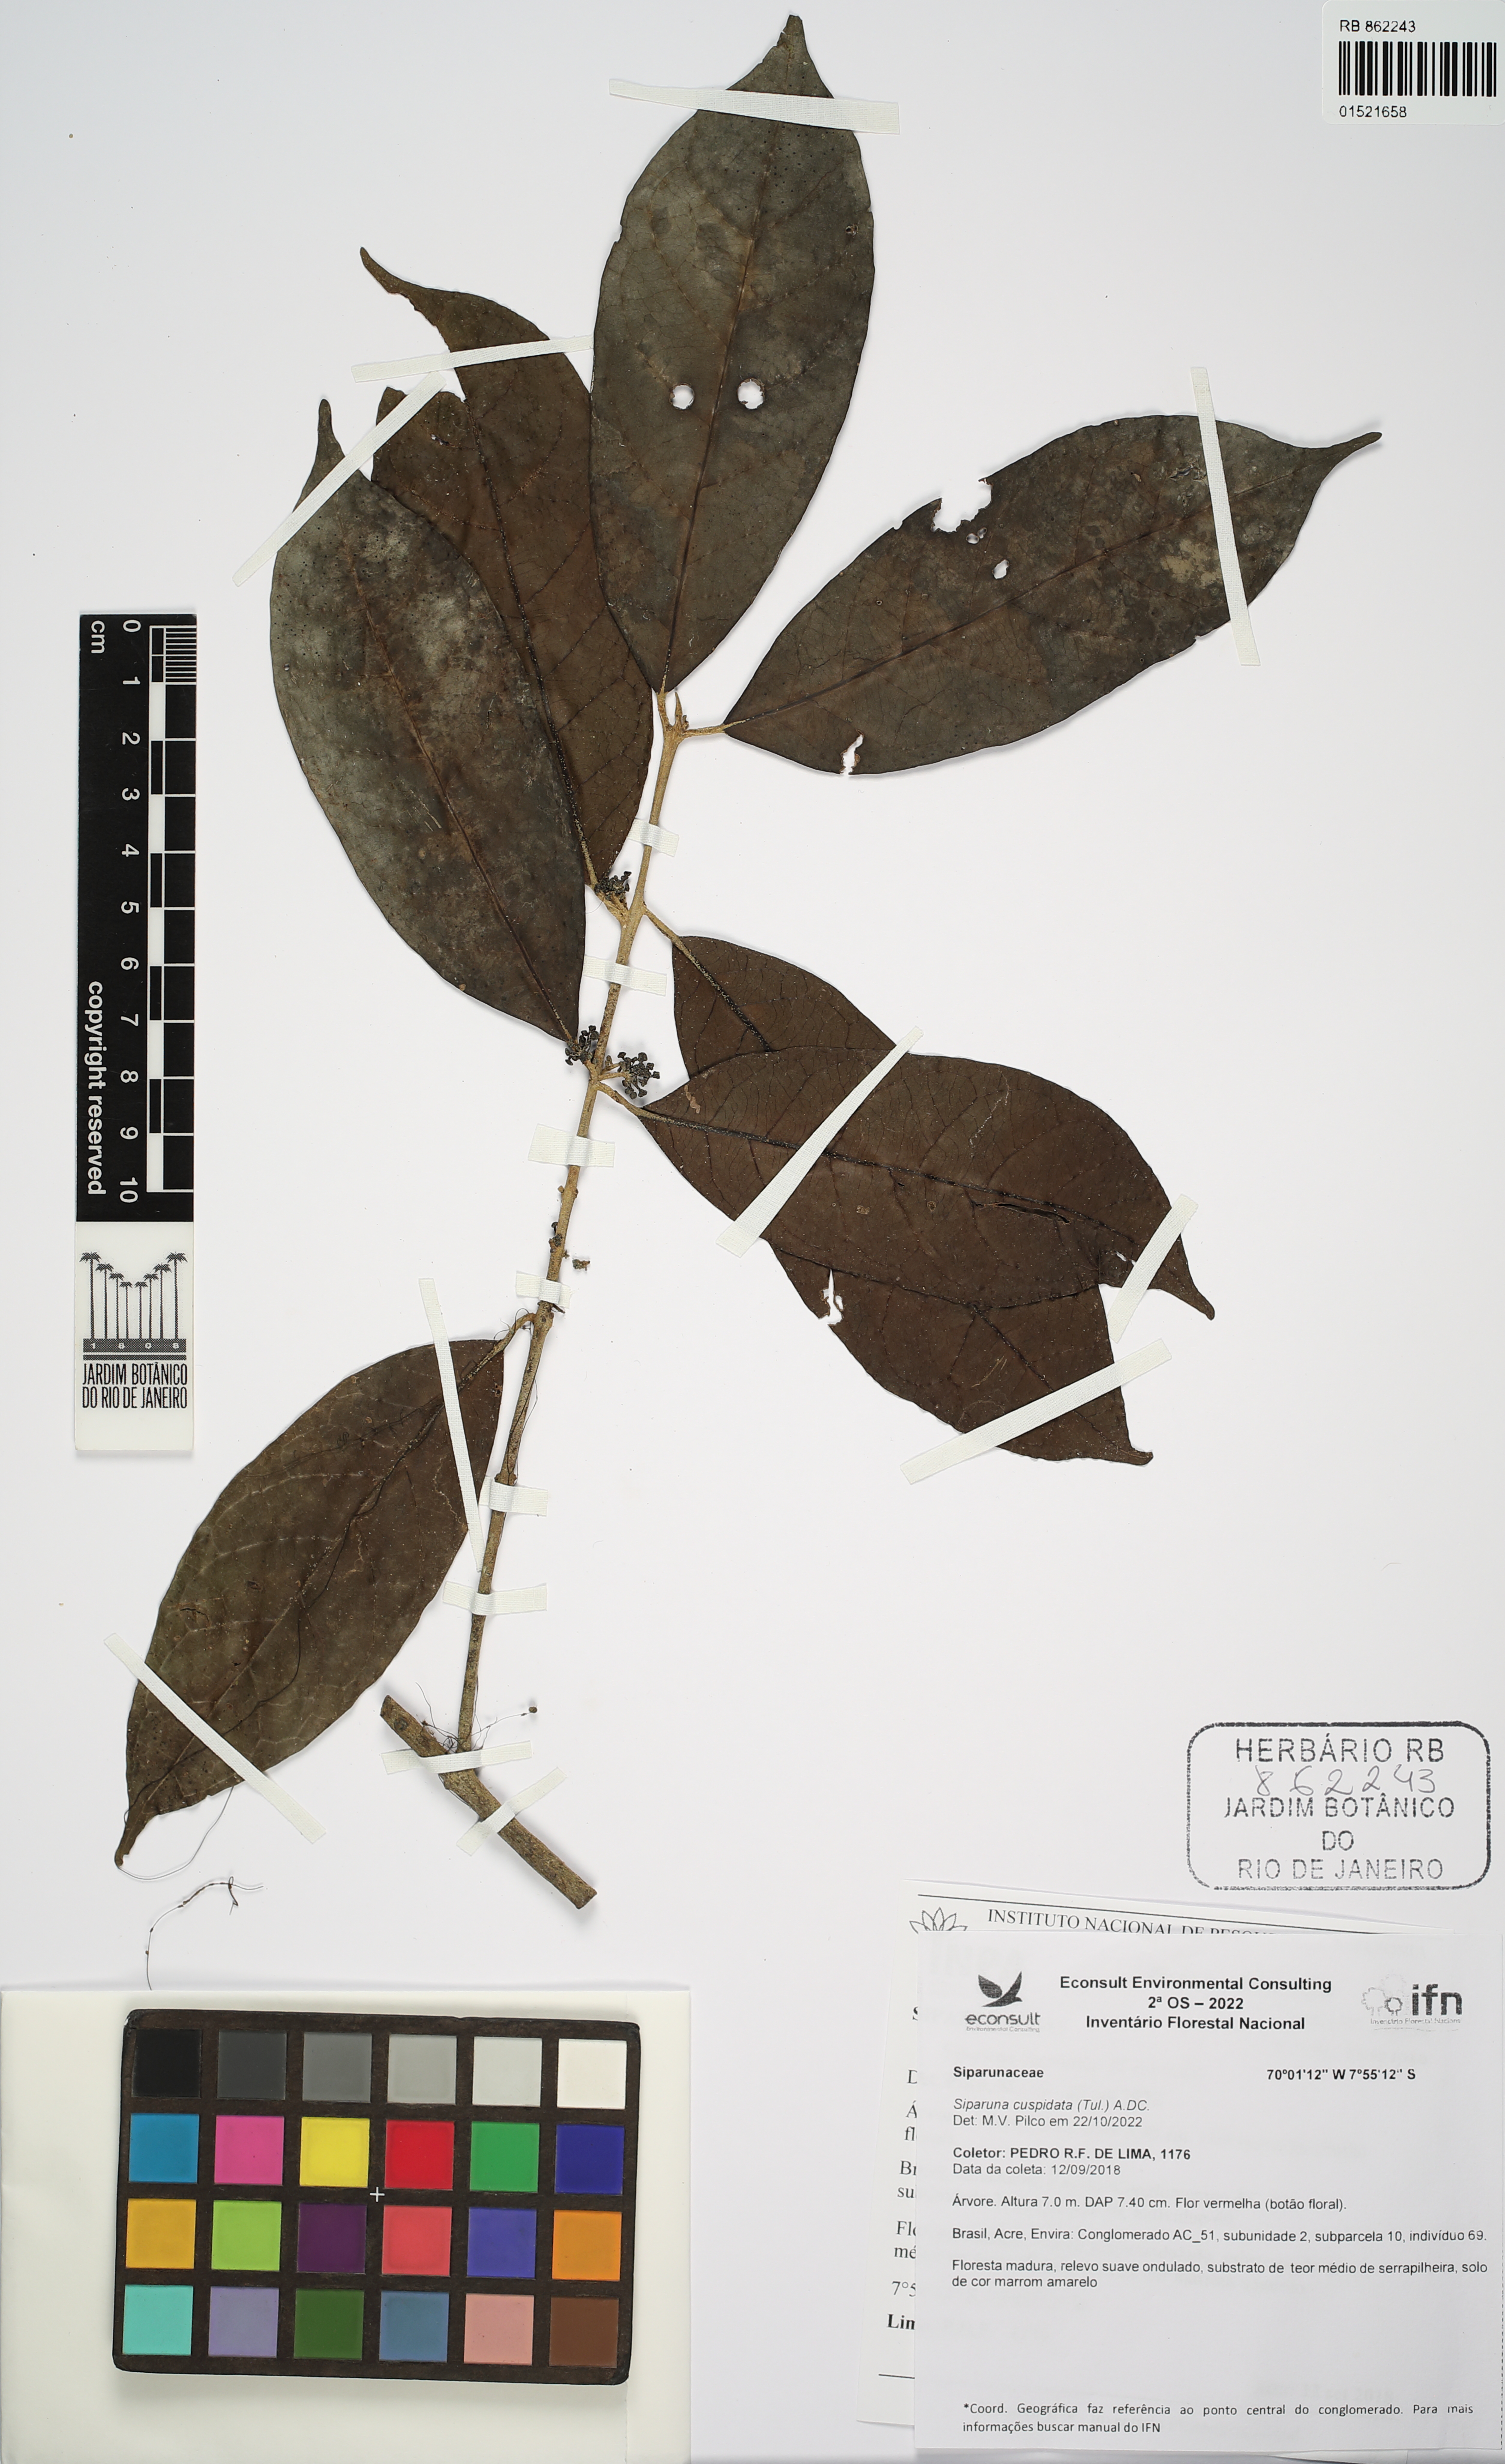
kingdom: Plantae
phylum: Tracheophyta
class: Magnoliopsida
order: Laurales
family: Siparunaceae
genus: Siparuna
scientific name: Siparuna cuspidata
